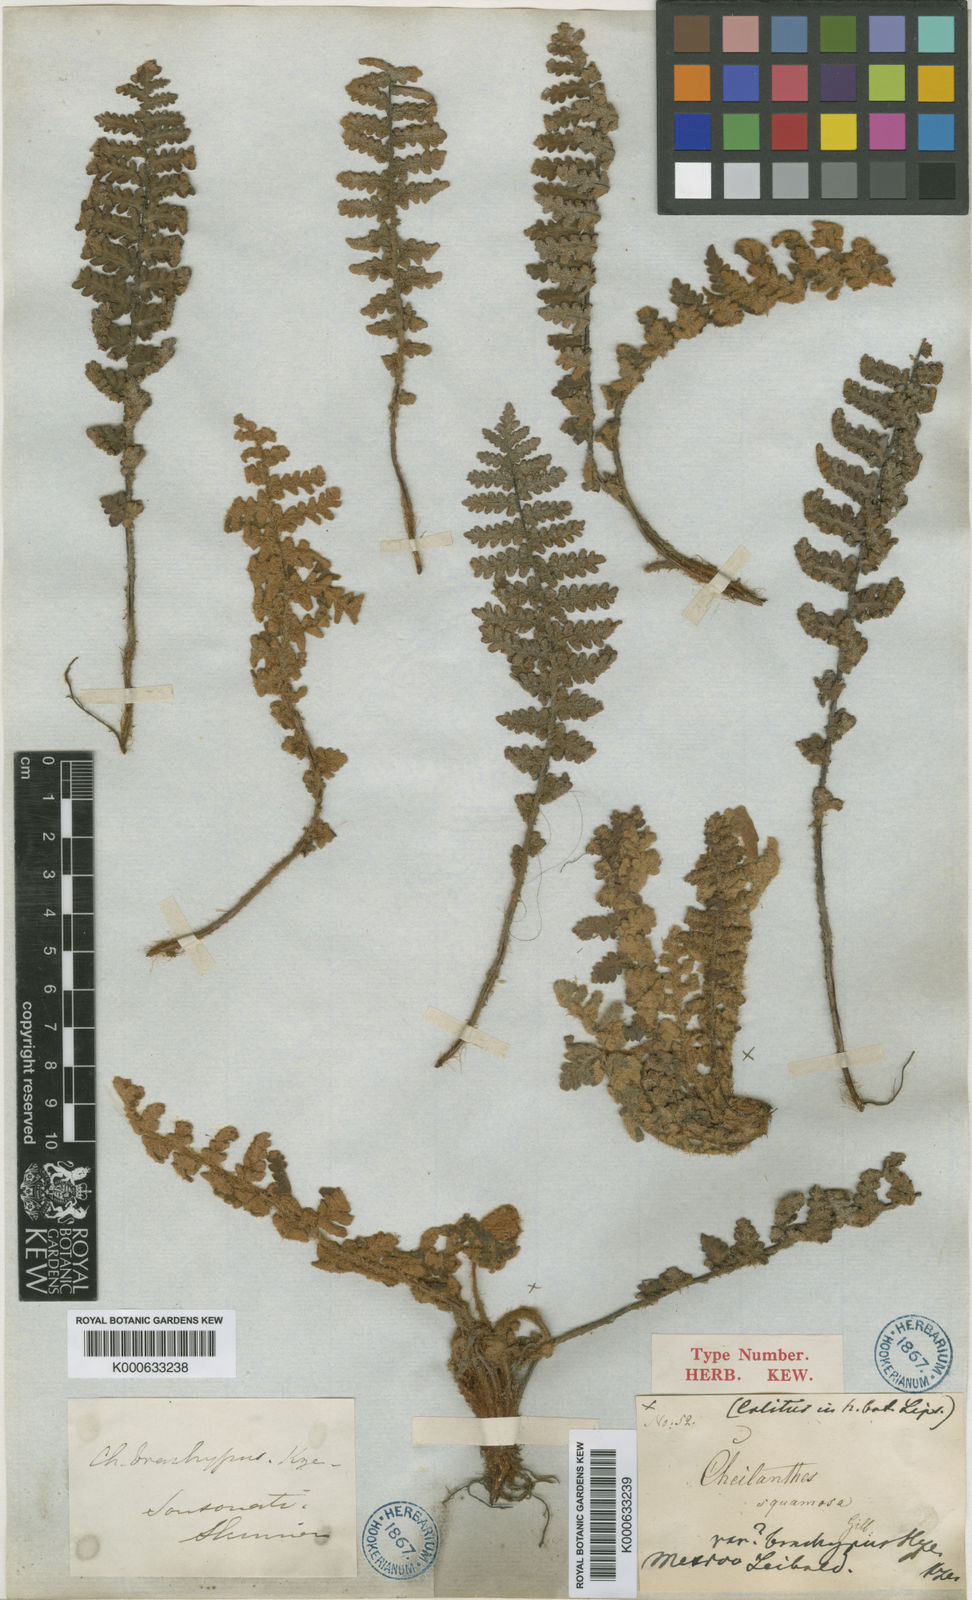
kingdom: Plantae
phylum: Tracheophyta
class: Polypodiopsida
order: Polypodiales
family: Pteridaceae
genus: Notholaena
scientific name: Notholaena brachypus
